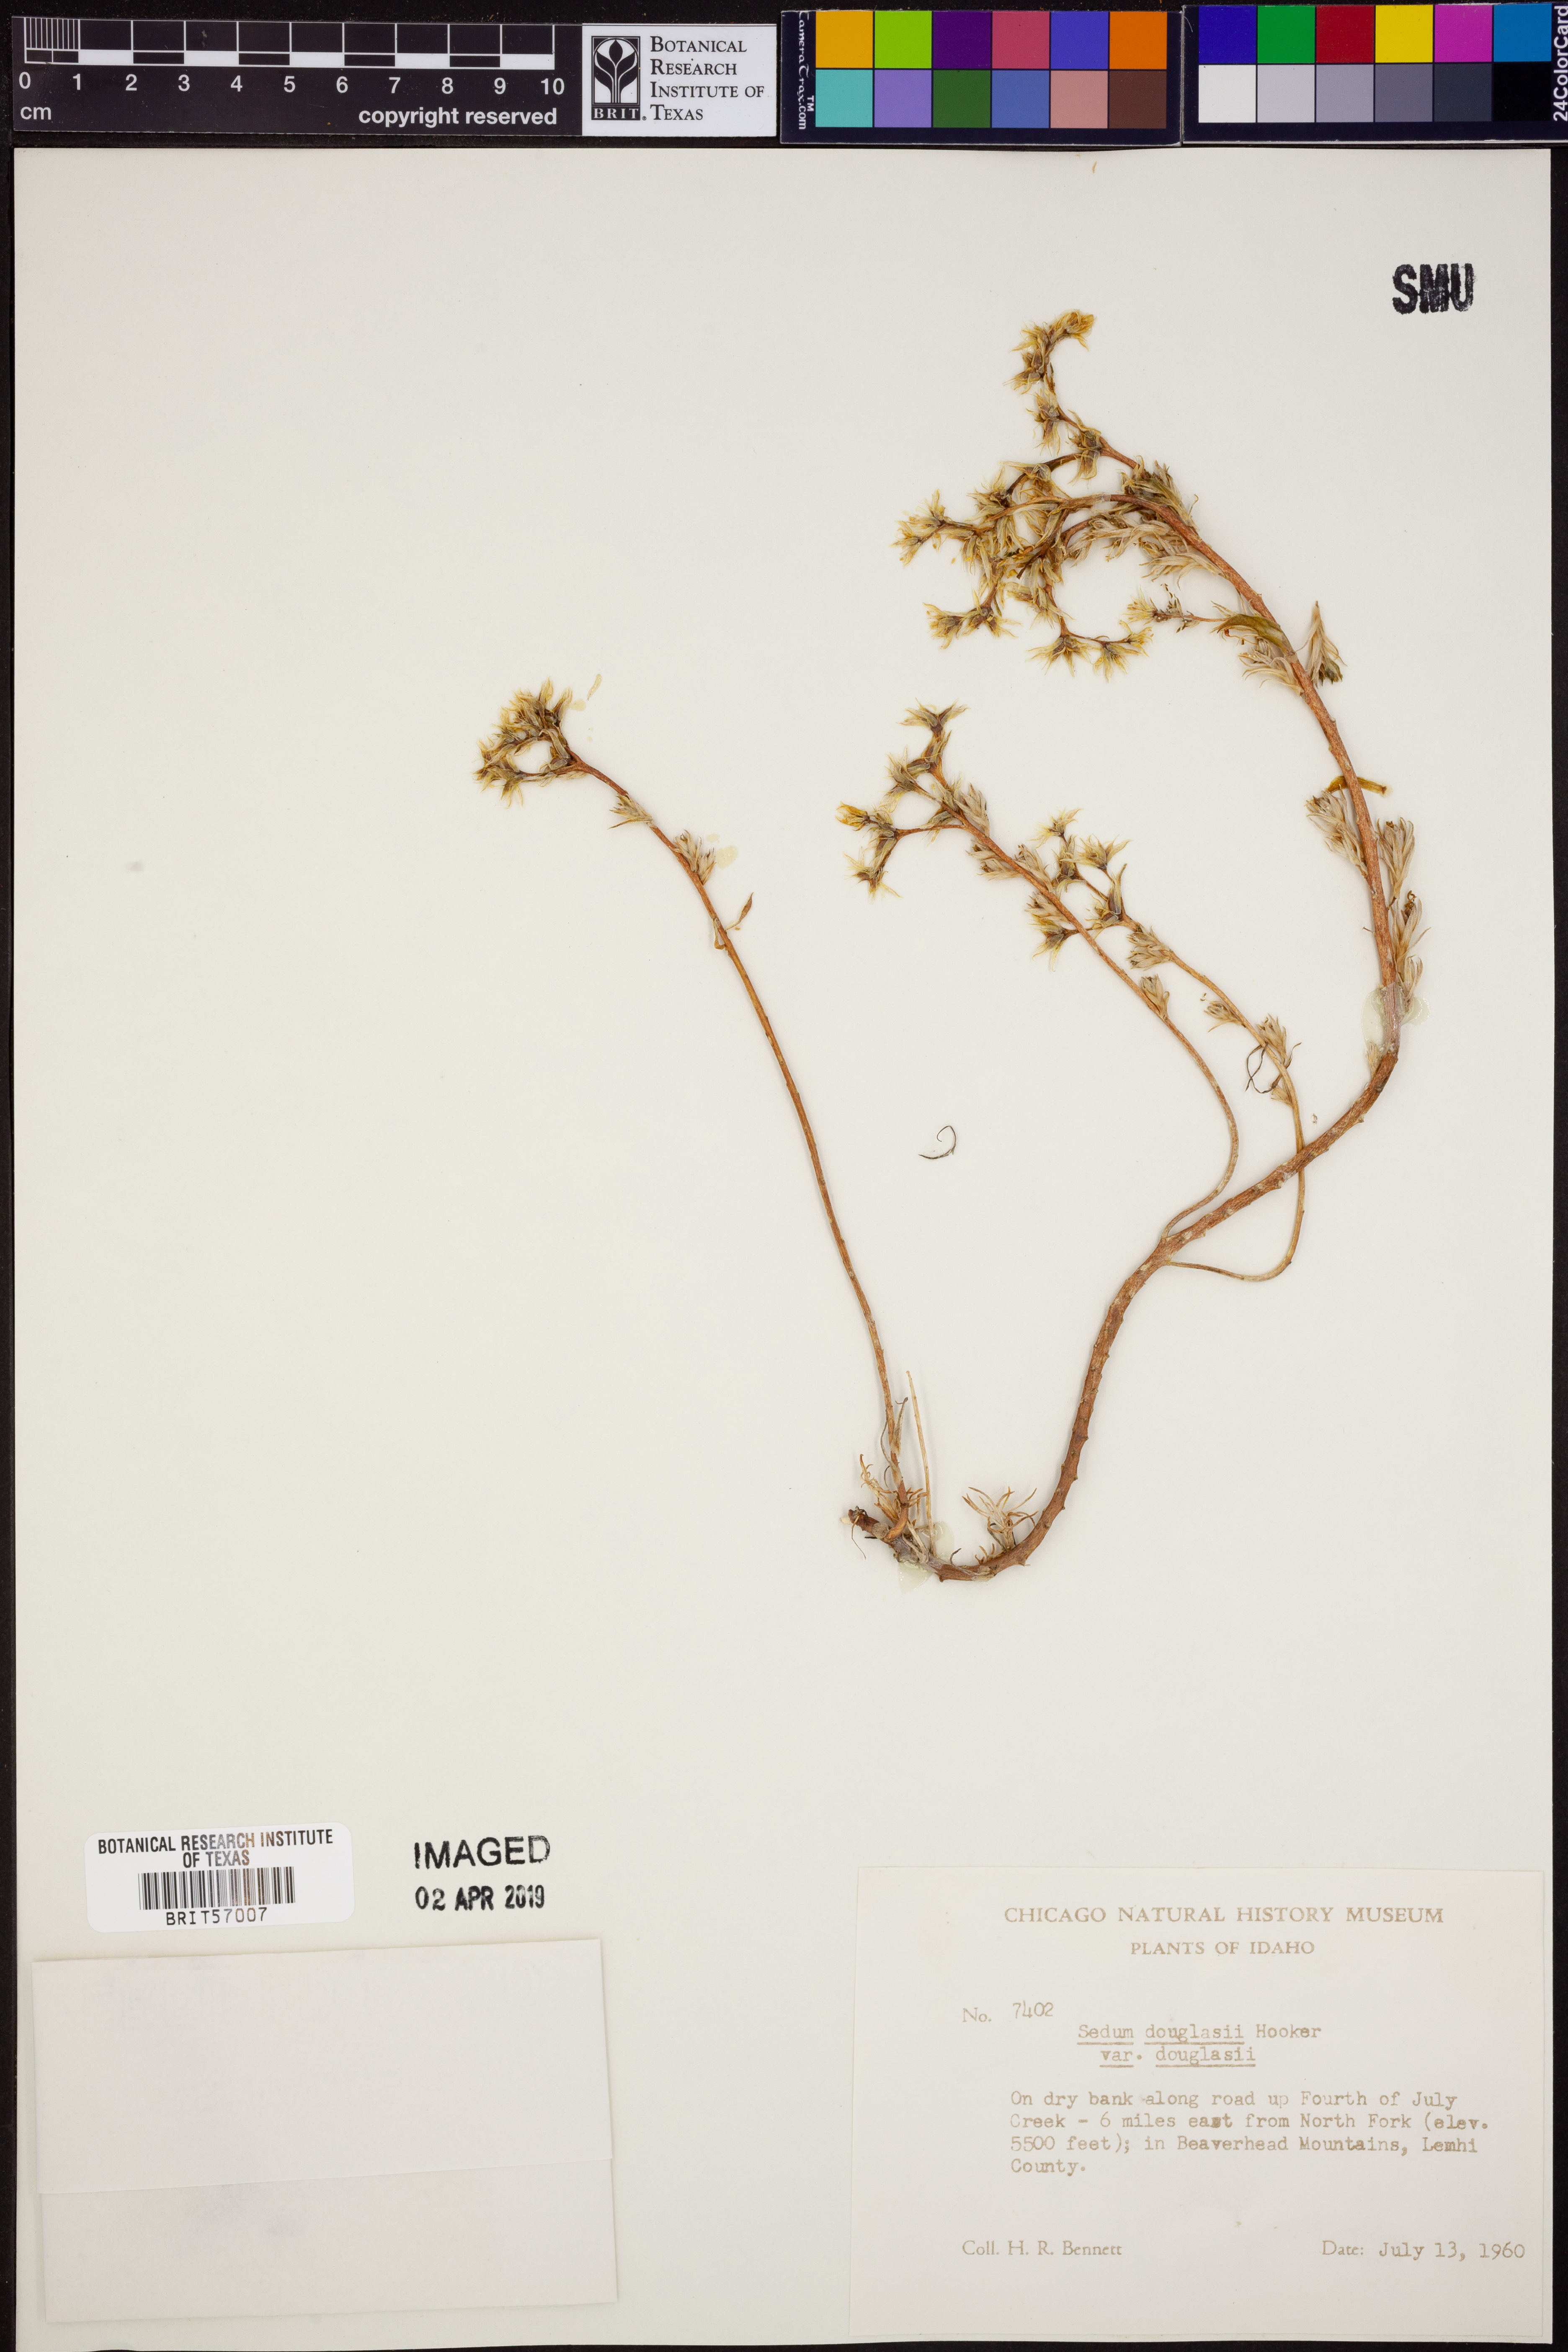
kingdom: Plantae
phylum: Tracheophyta
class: Magnoliopsida
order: Saxifragales
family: Crassulaceae
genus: Sedum
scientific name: Sedum
